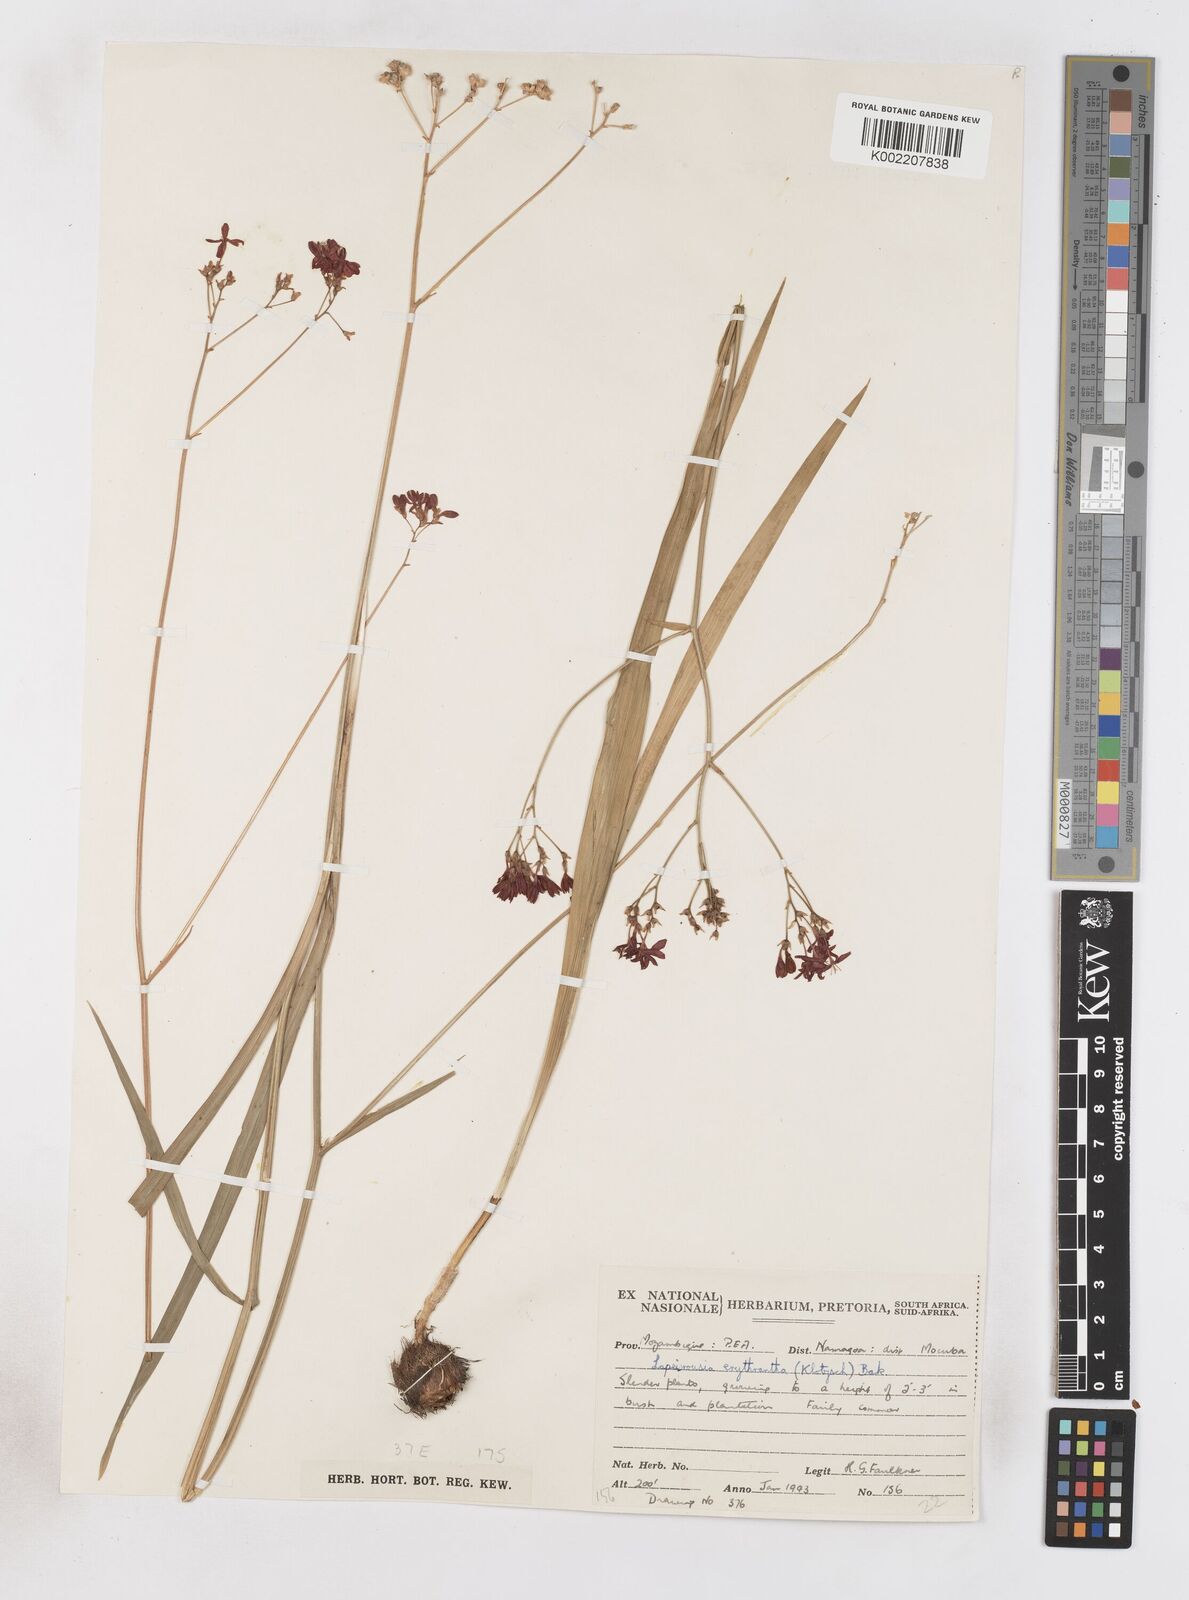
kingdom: Plantae
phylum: Tracheophyta
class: Liliopsida
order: Asparagales
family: Iridaceae
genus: Afrosolen
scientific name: Afrosolen erythranthus
